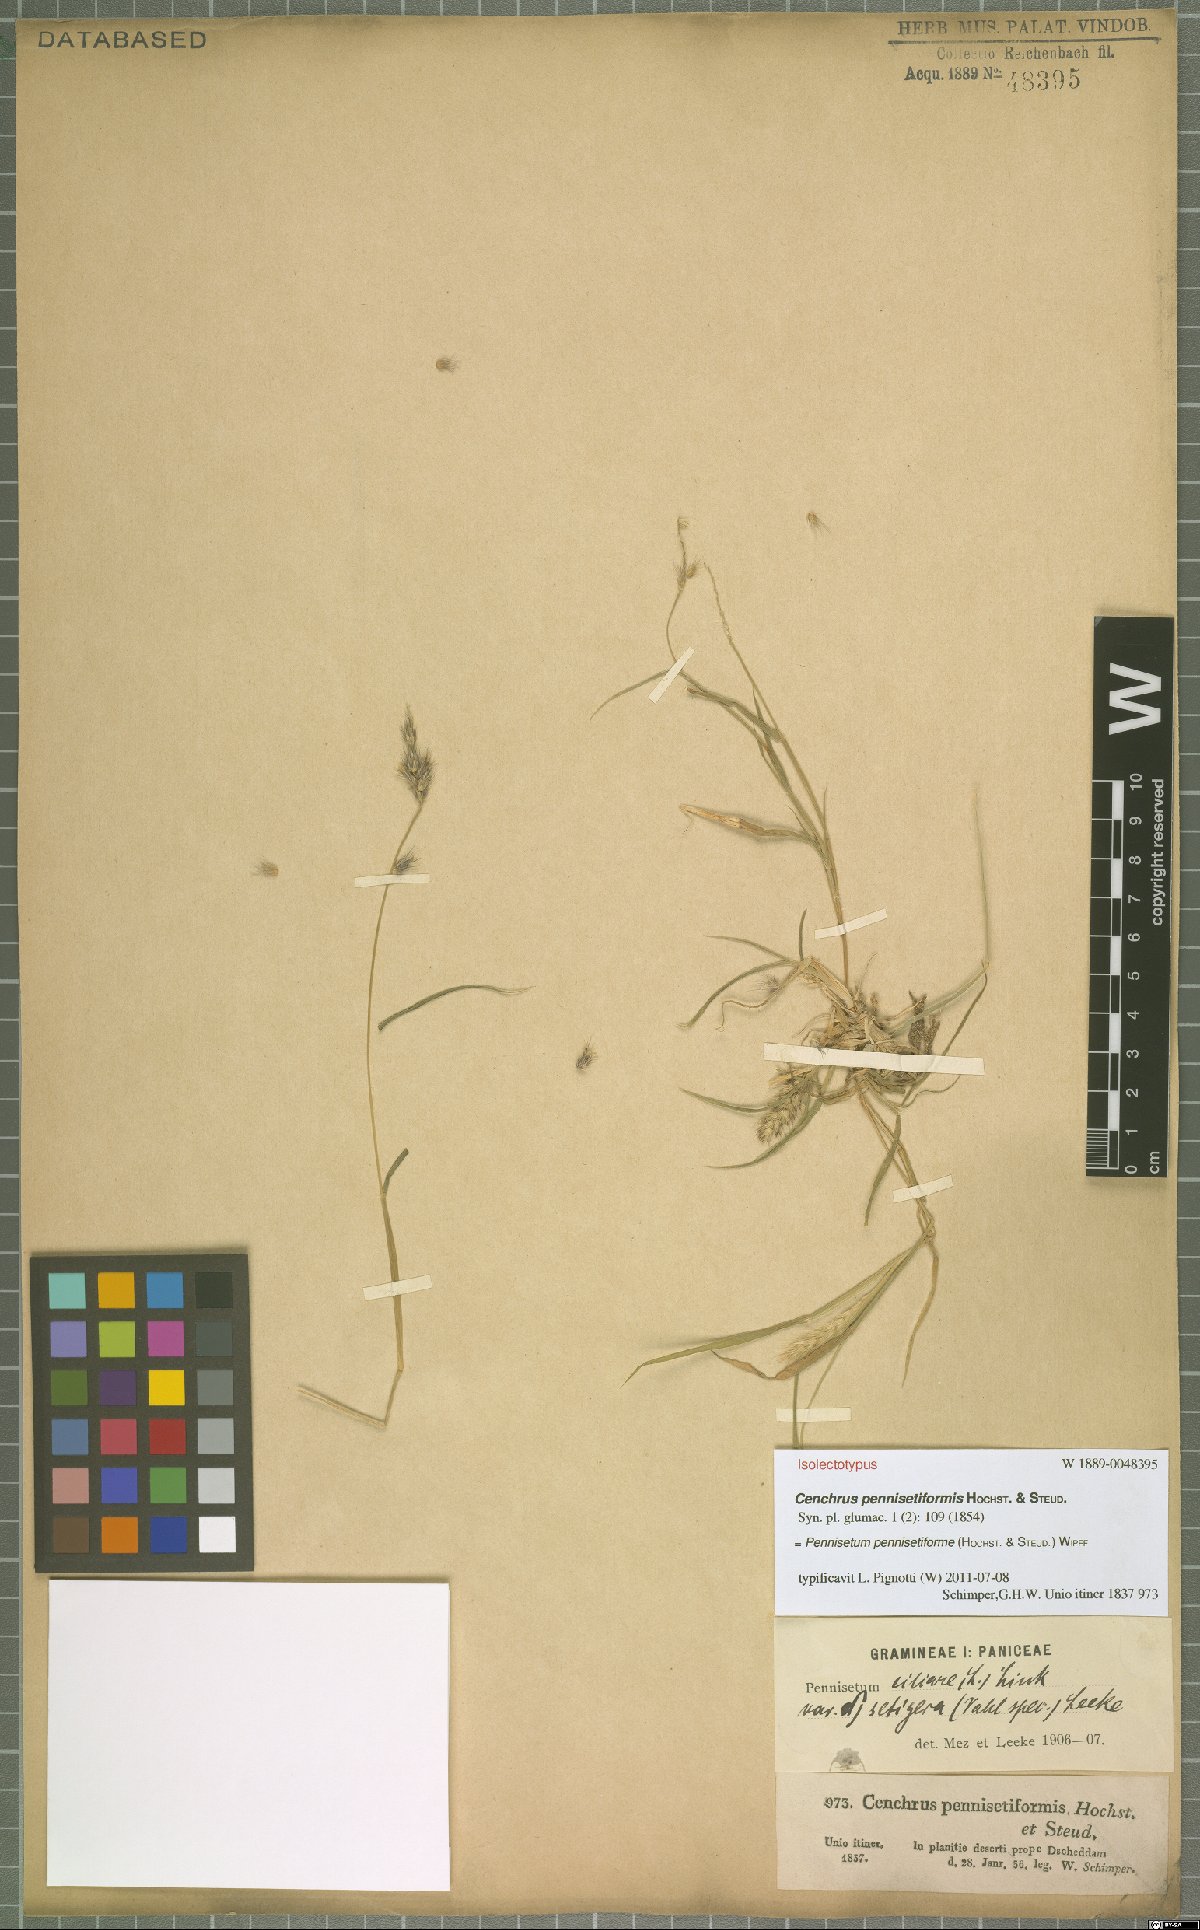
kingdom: Plantae
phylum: Tracheophyta
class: Liliopsida
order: Poales
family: Poaceae
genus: Cenchrus
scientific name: Cenchrus pennisetiformis
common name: Cloncurry
